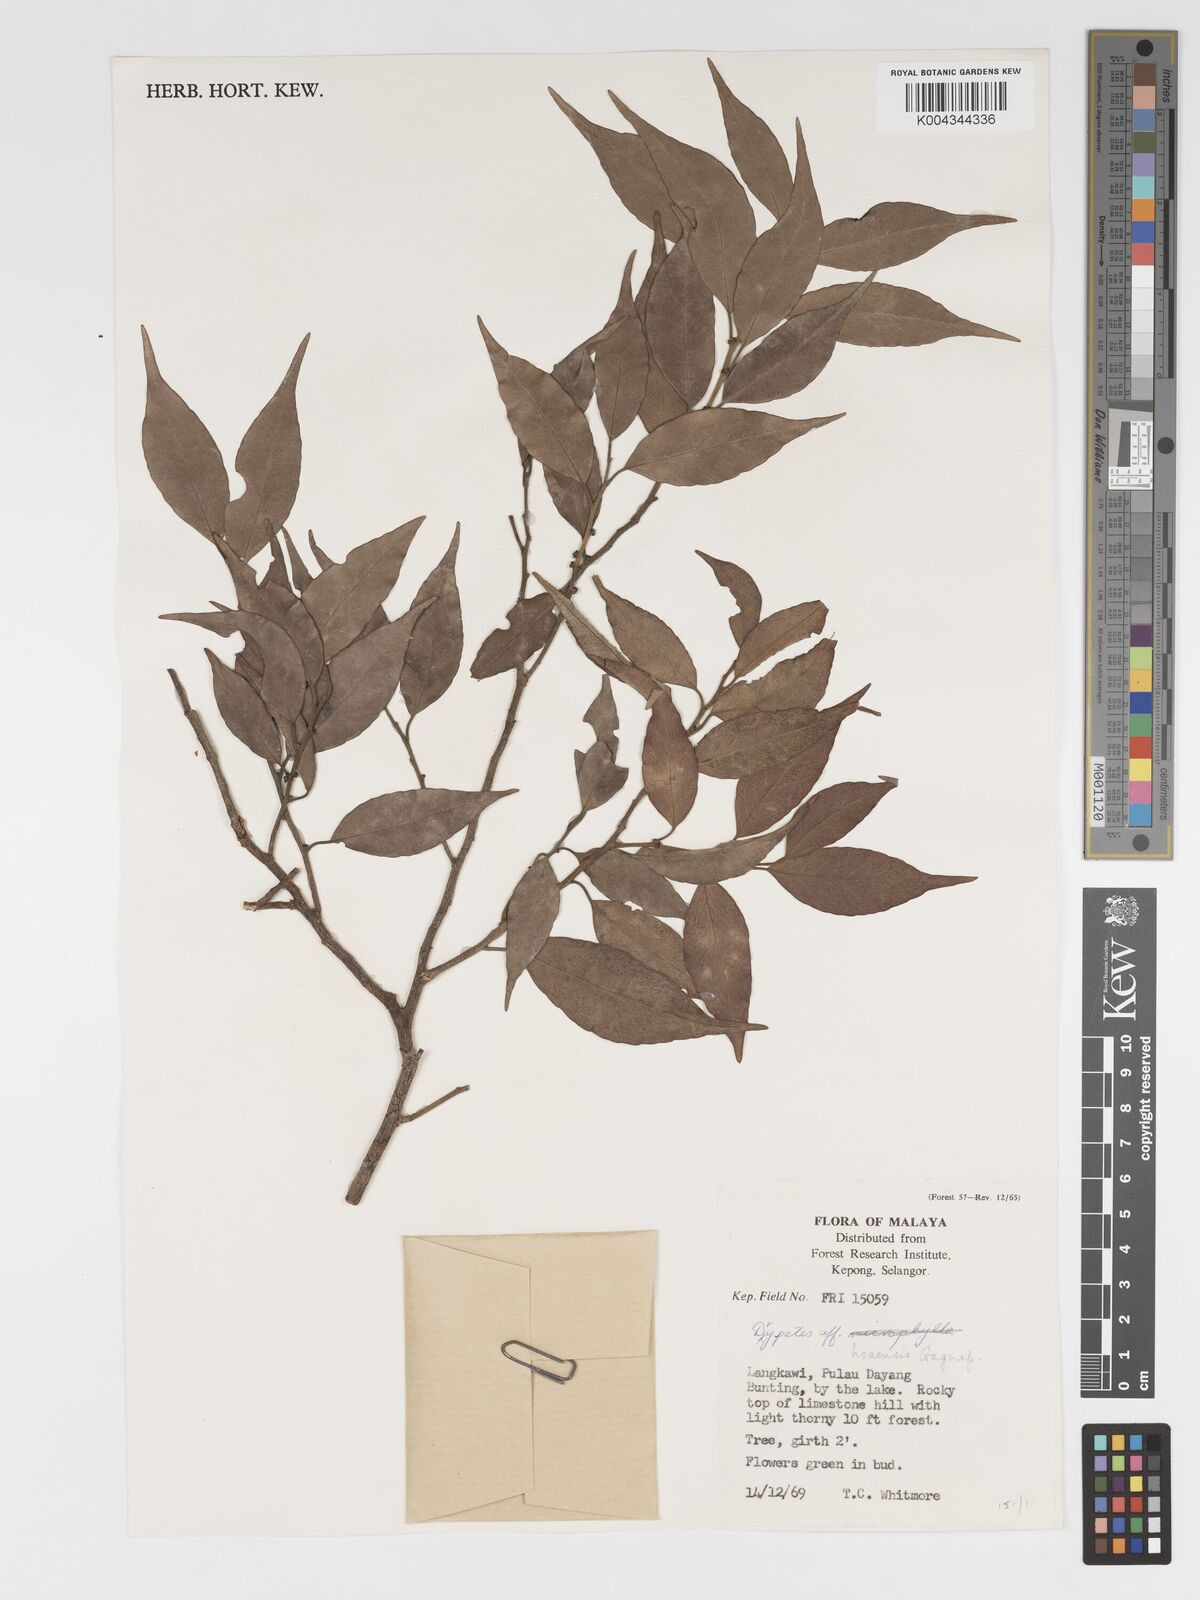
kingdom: Plantae
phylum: Tracheophyta
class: Magnoliopsida
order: Malpighiales
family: Putranjivaceae
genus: Drypetes
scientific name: Drypetes hoaensis
